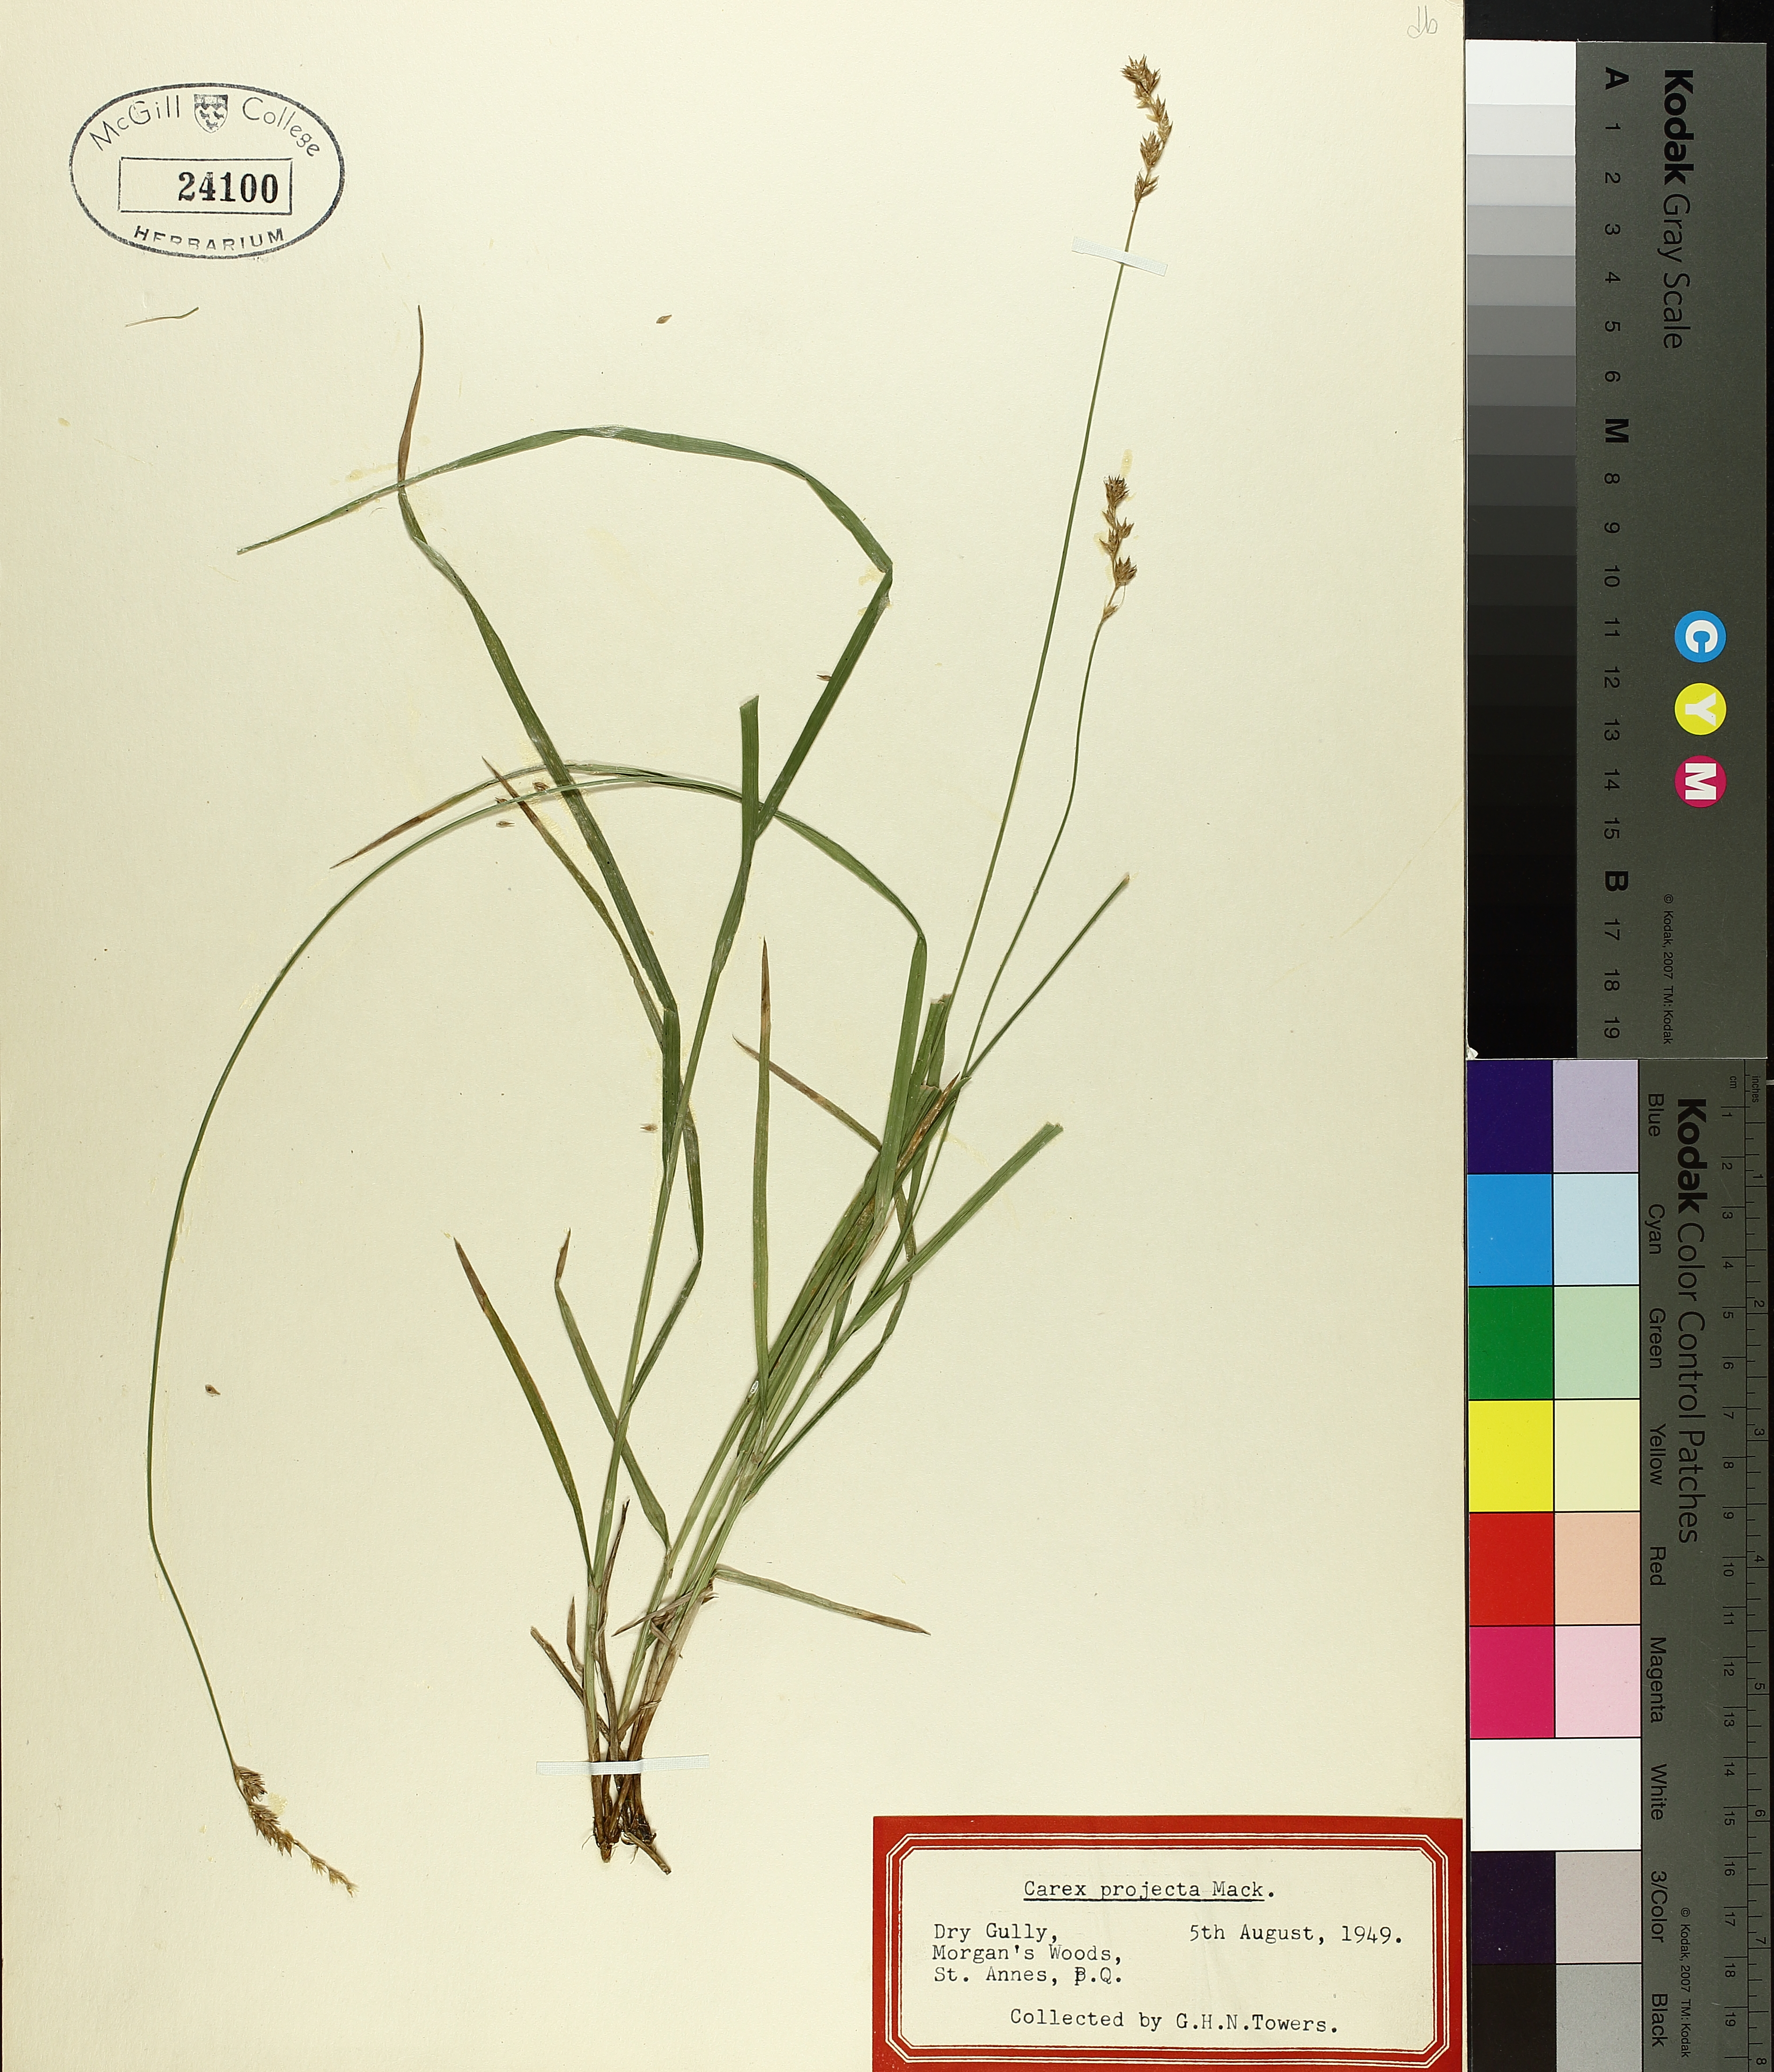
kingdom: Plantae
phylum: Tracheophyta
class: Liliopsida
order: Poales
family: Cyperaceae
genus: Carex
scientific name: Carex projecta
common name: Loose-headed oval sedge
